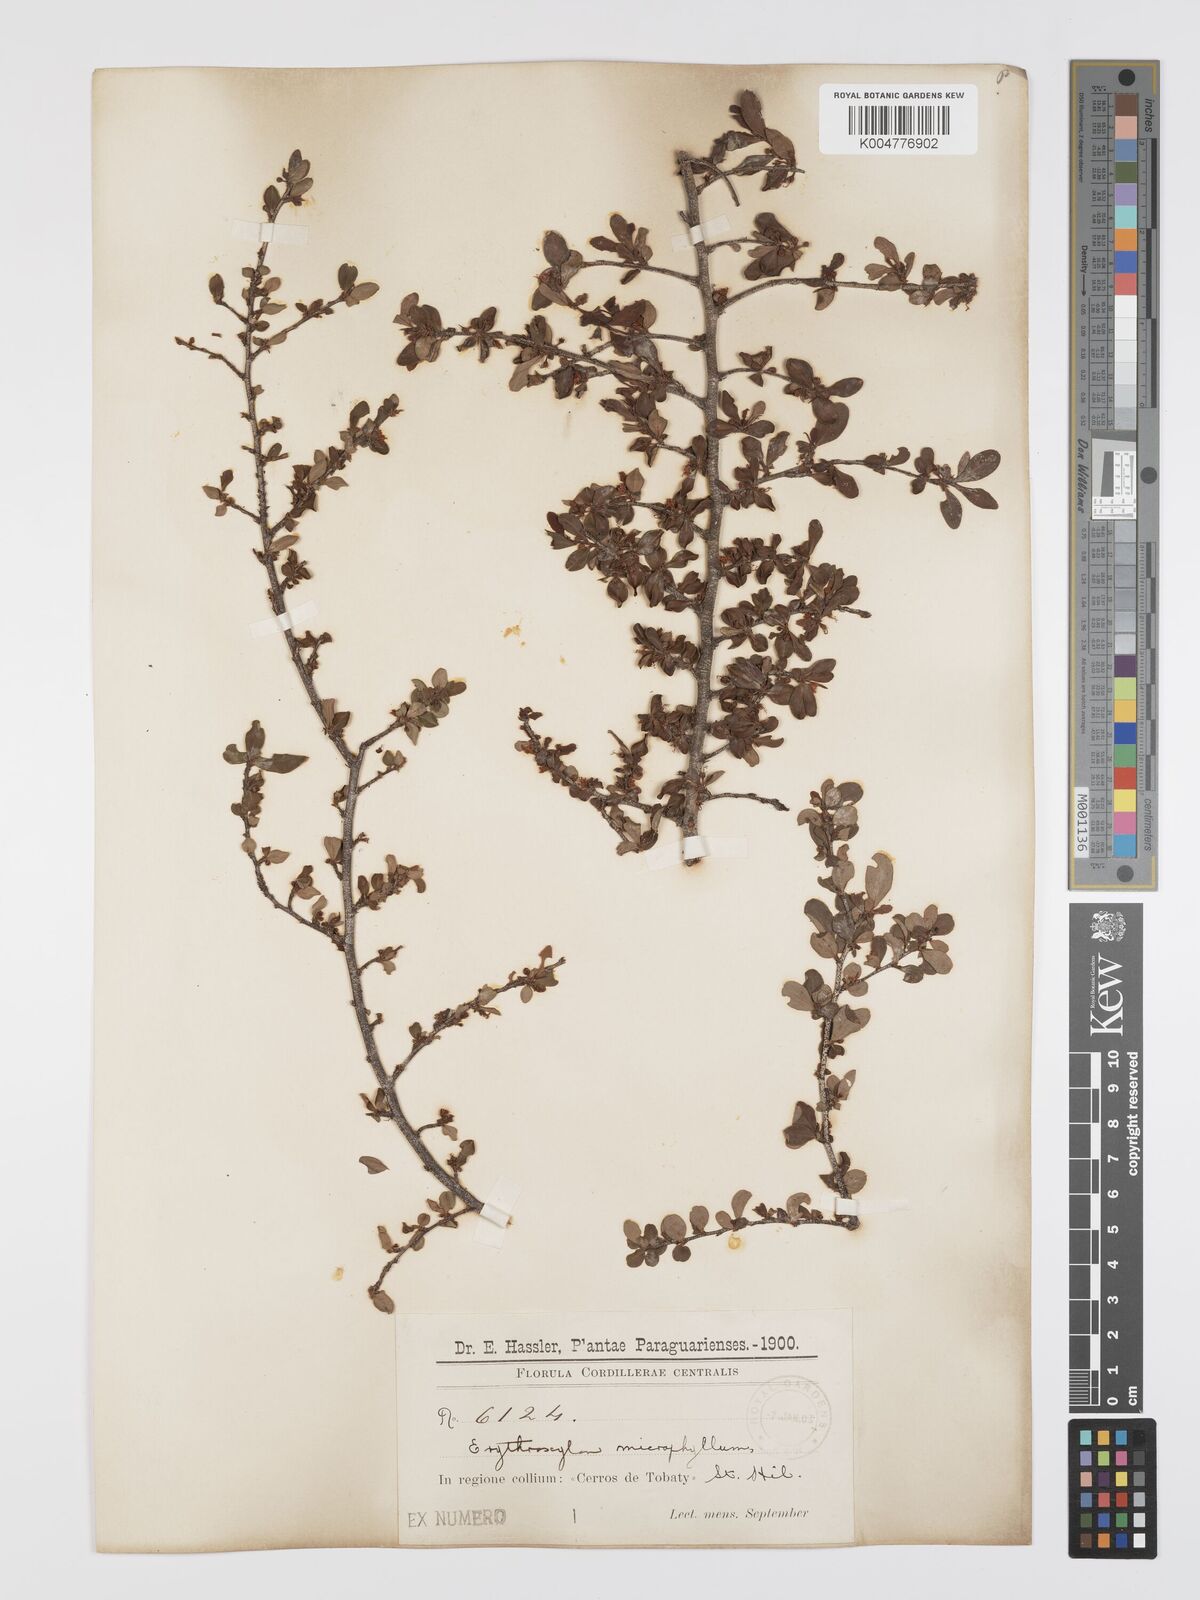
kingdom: Plantae
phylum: Tracheophyta
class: Magnoliopsida
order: Malpighiales
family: Erythroxylaceae
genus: Erythroxylum
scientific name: Erythroxylum cuneifolium
